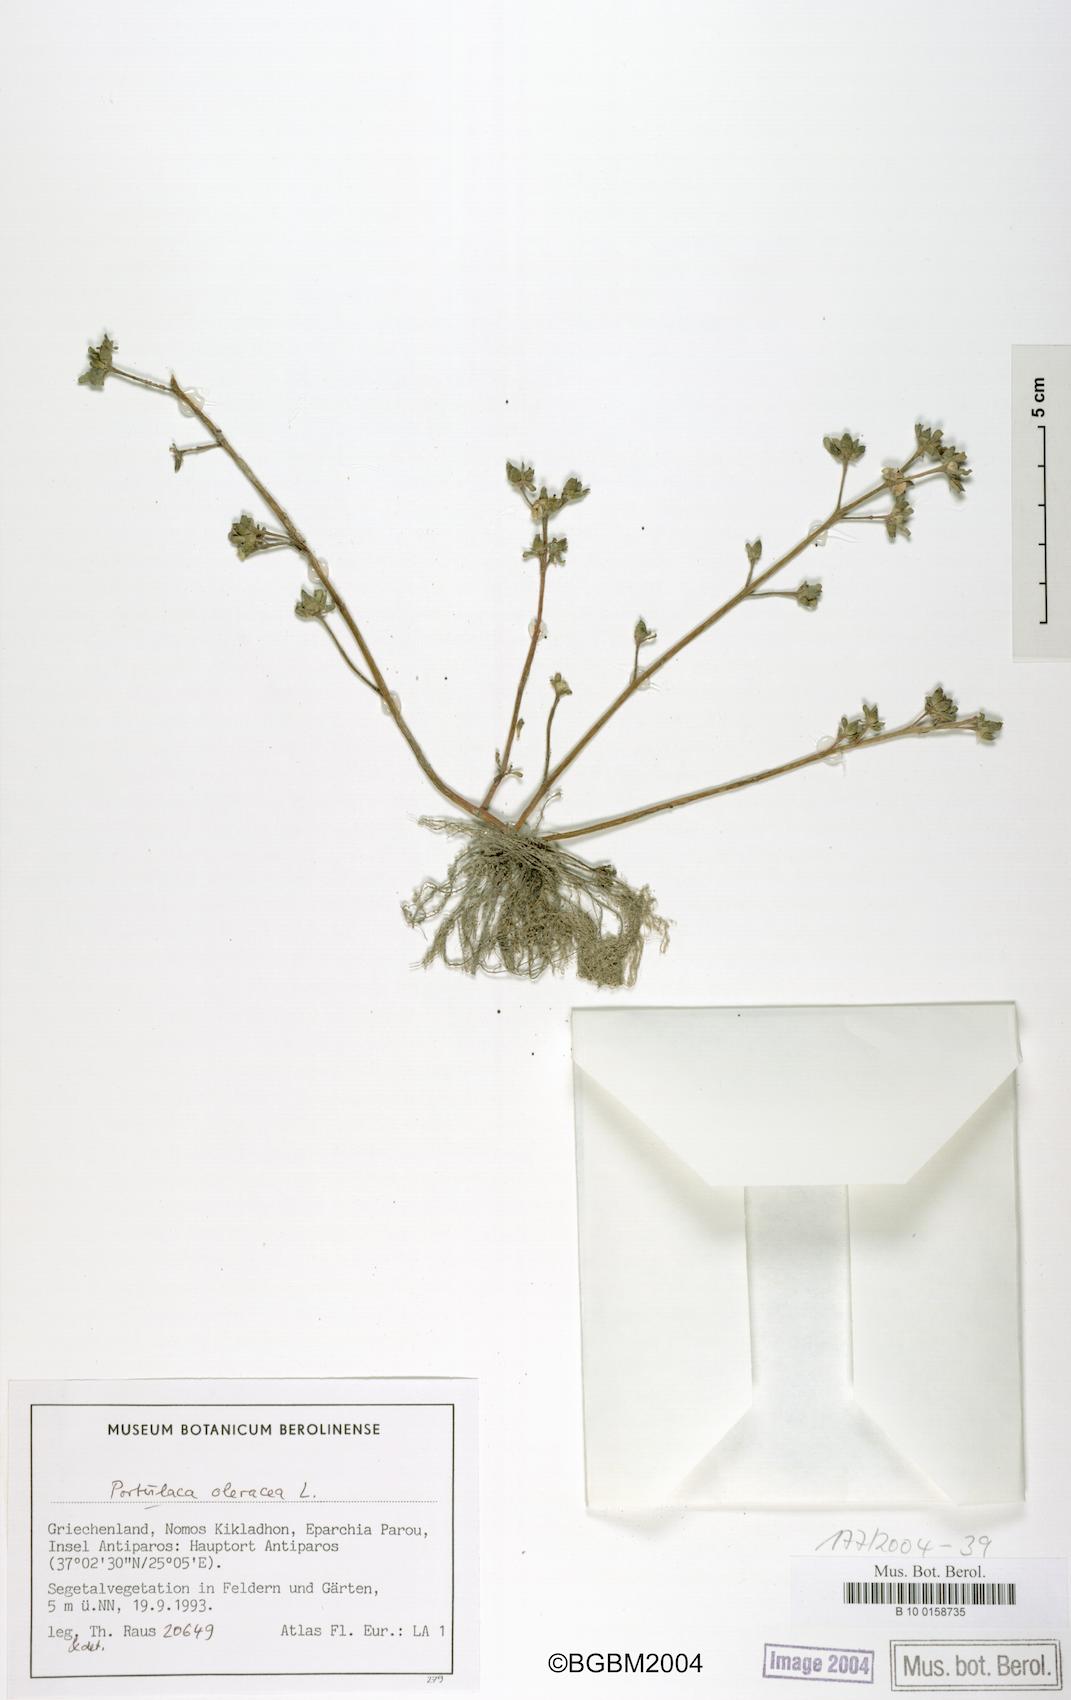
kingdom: Plantae
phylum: Tracheophyta
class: Magnoliopsida
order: Caryophyllales
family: Portulacaceae
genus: Portulaca
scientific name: Portulaca oleracea
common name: Common purslane
